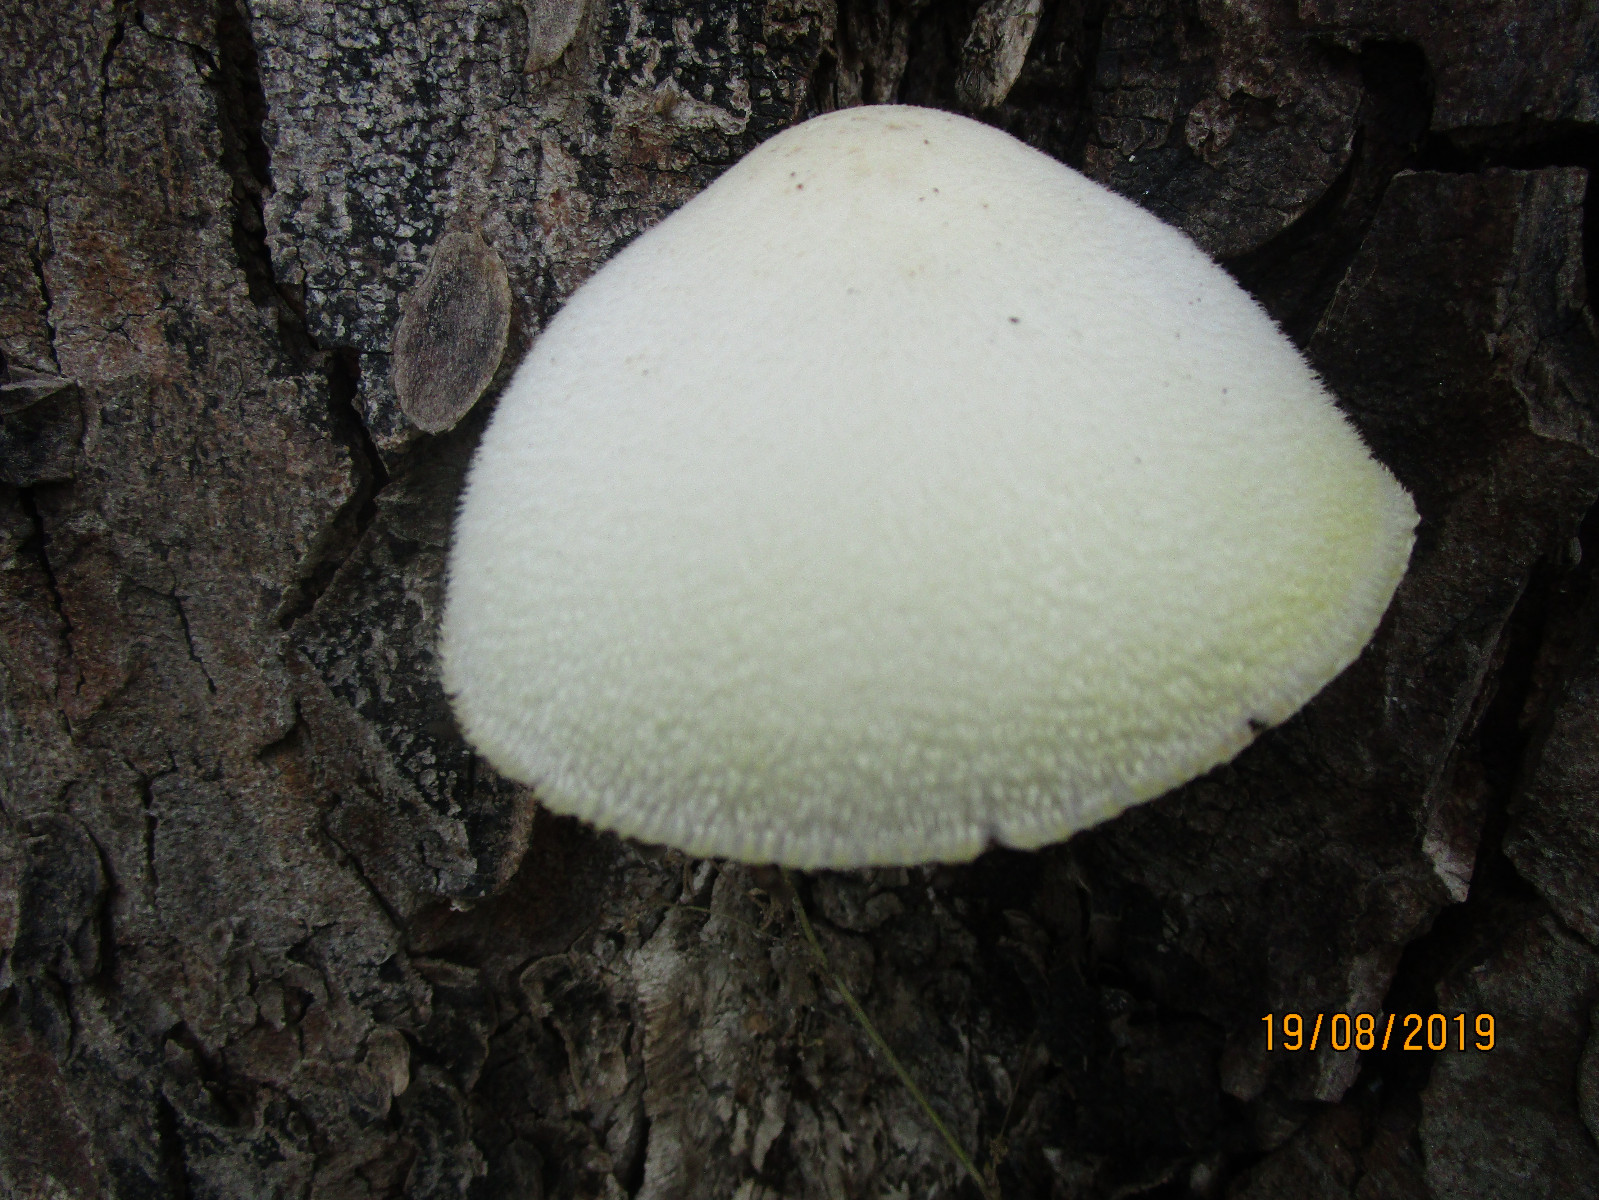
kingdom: Fungi
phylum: Basidiomycota
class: Agaricomycetes
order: Agaricales
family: Pluteaceae
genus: Volvariella
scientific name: Volvariella bombycina
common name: silkehåret posesvamp
